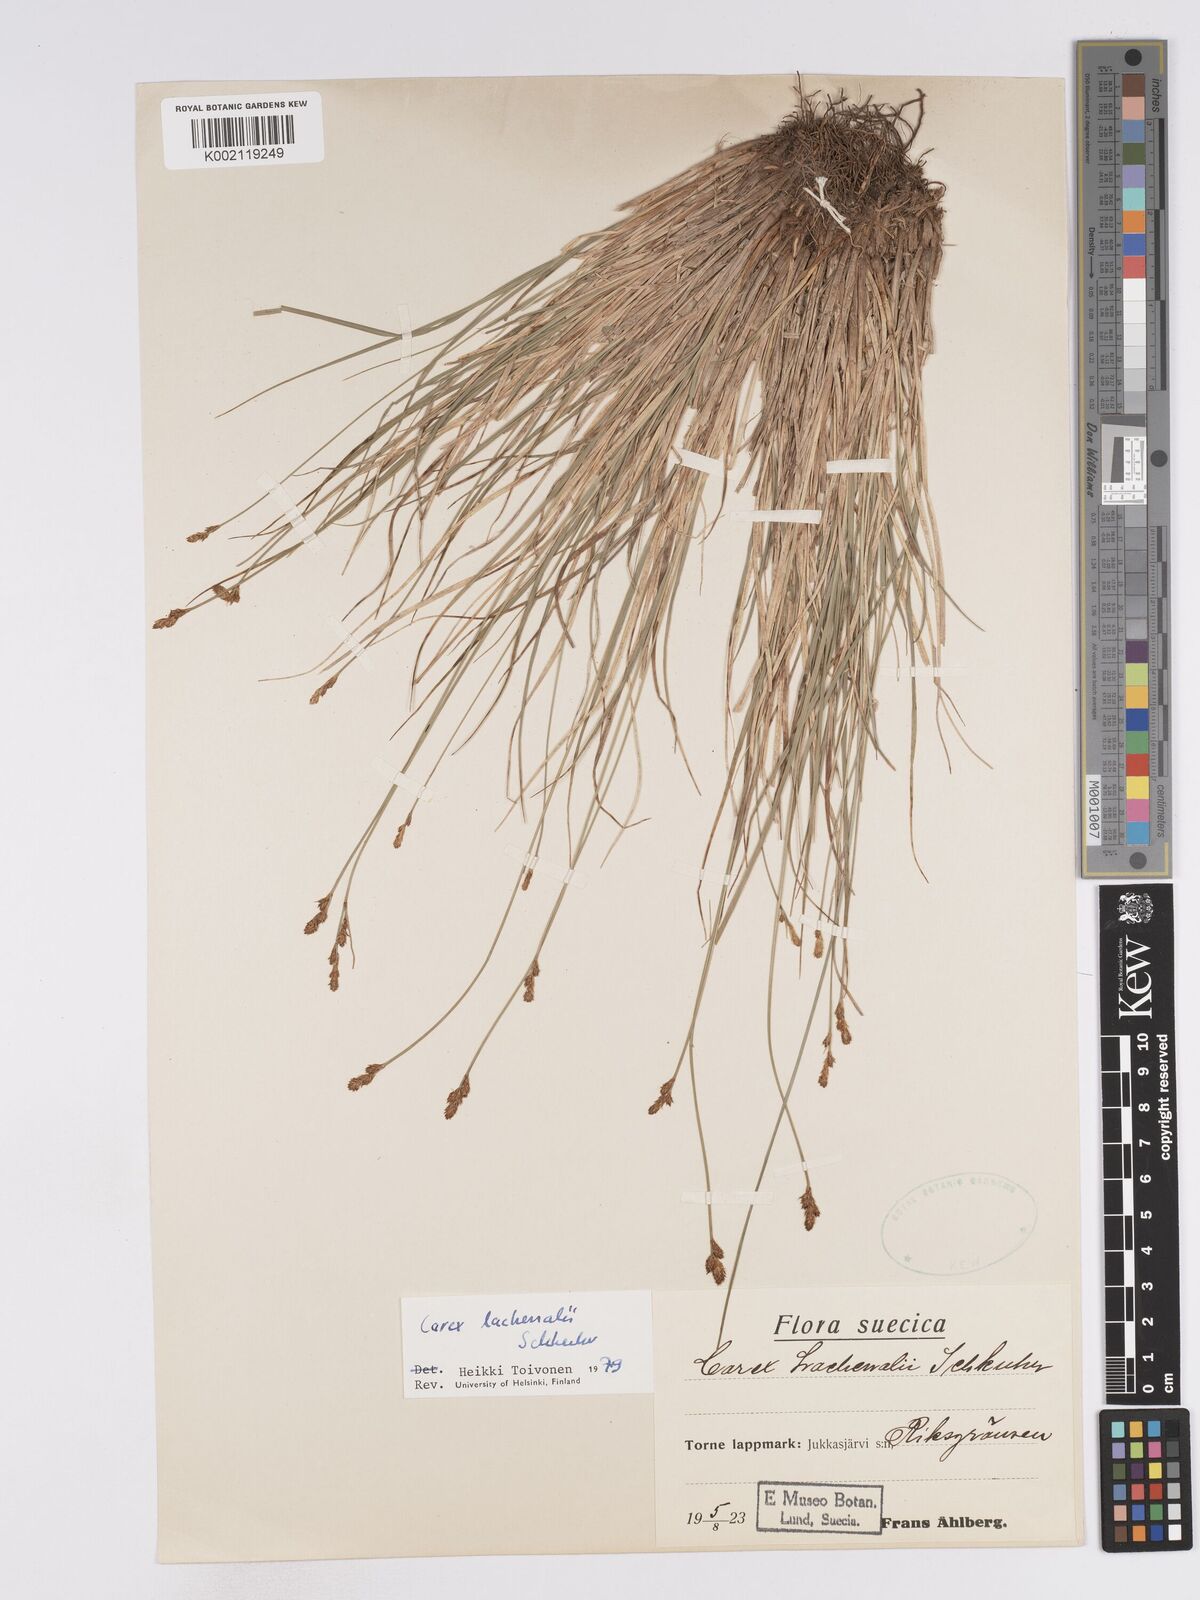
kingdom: Plantae
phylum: Tracheophyta
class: Liliopsida
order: Poales
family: Cyperaceae
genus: Carex
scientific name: Carex lachenalii
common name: Hare's-foot sedge
